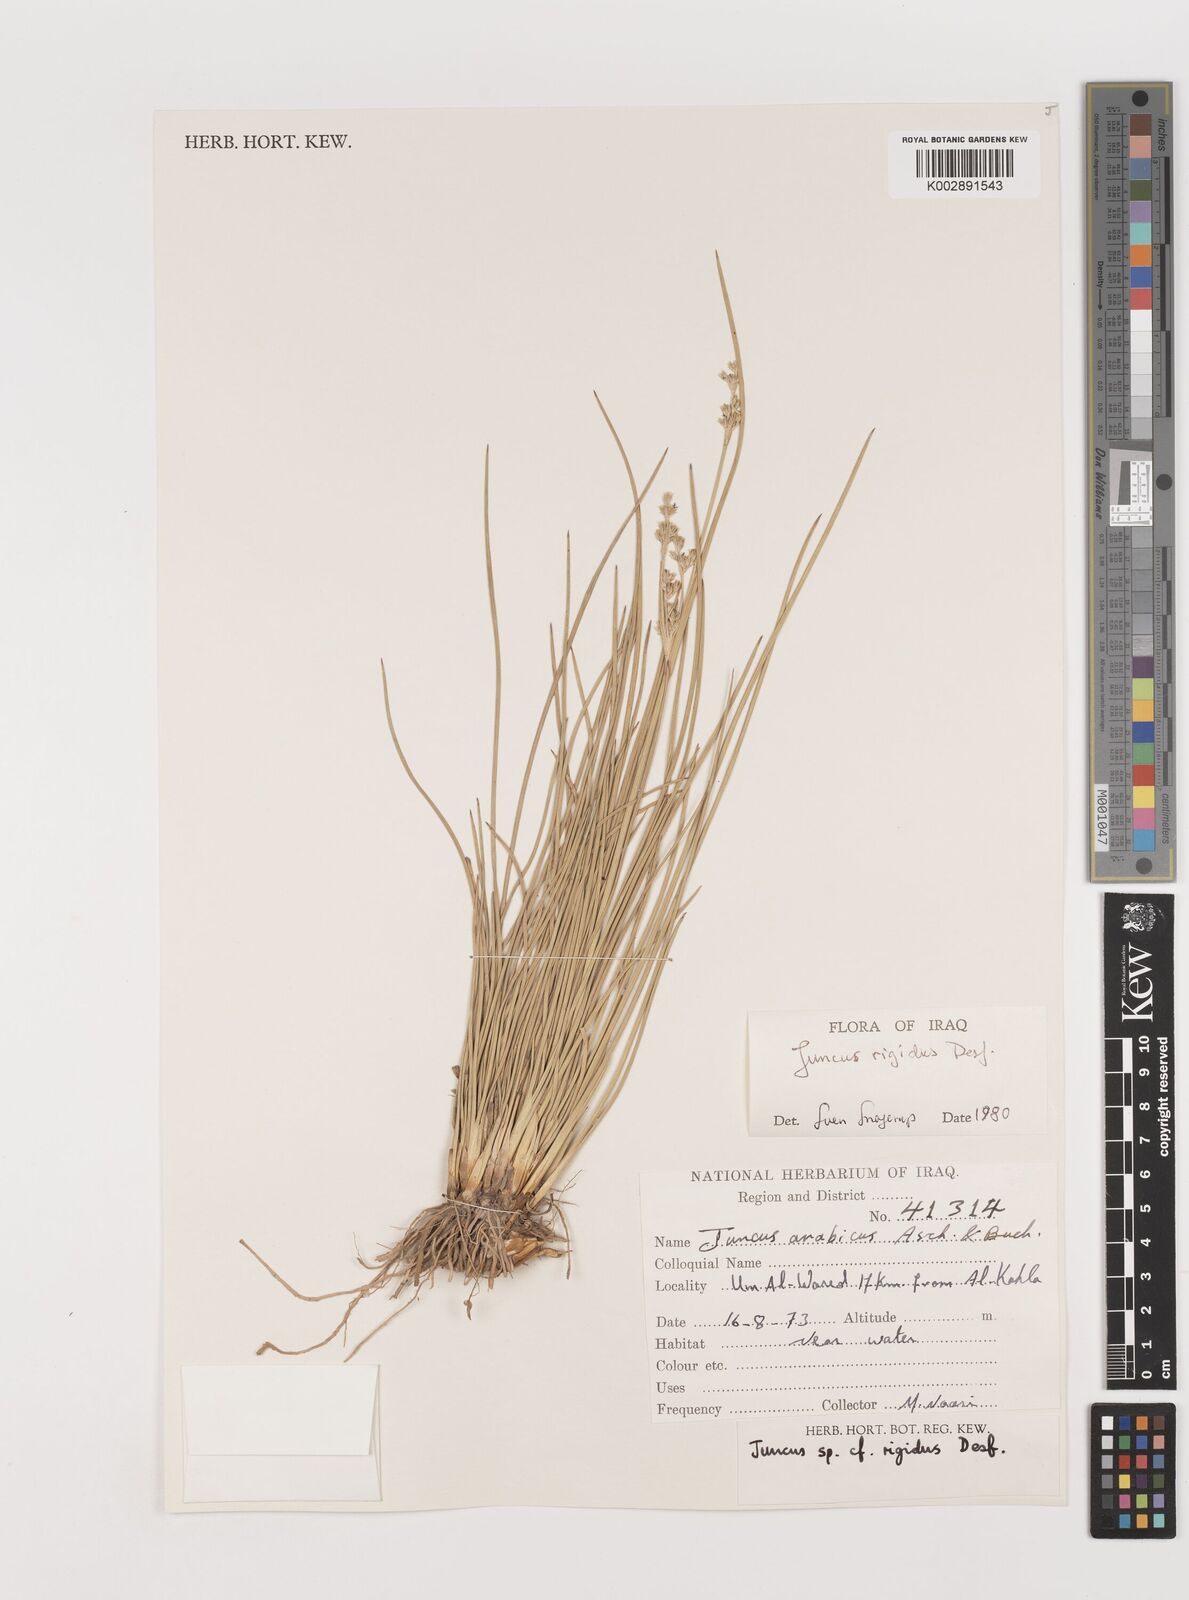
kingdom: Plantae
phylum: Tracheophyta
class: Liliopsida
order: Poales
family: Juncaceae
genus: Juncus
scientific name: Juncus rigidus
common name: Hard sea rush
